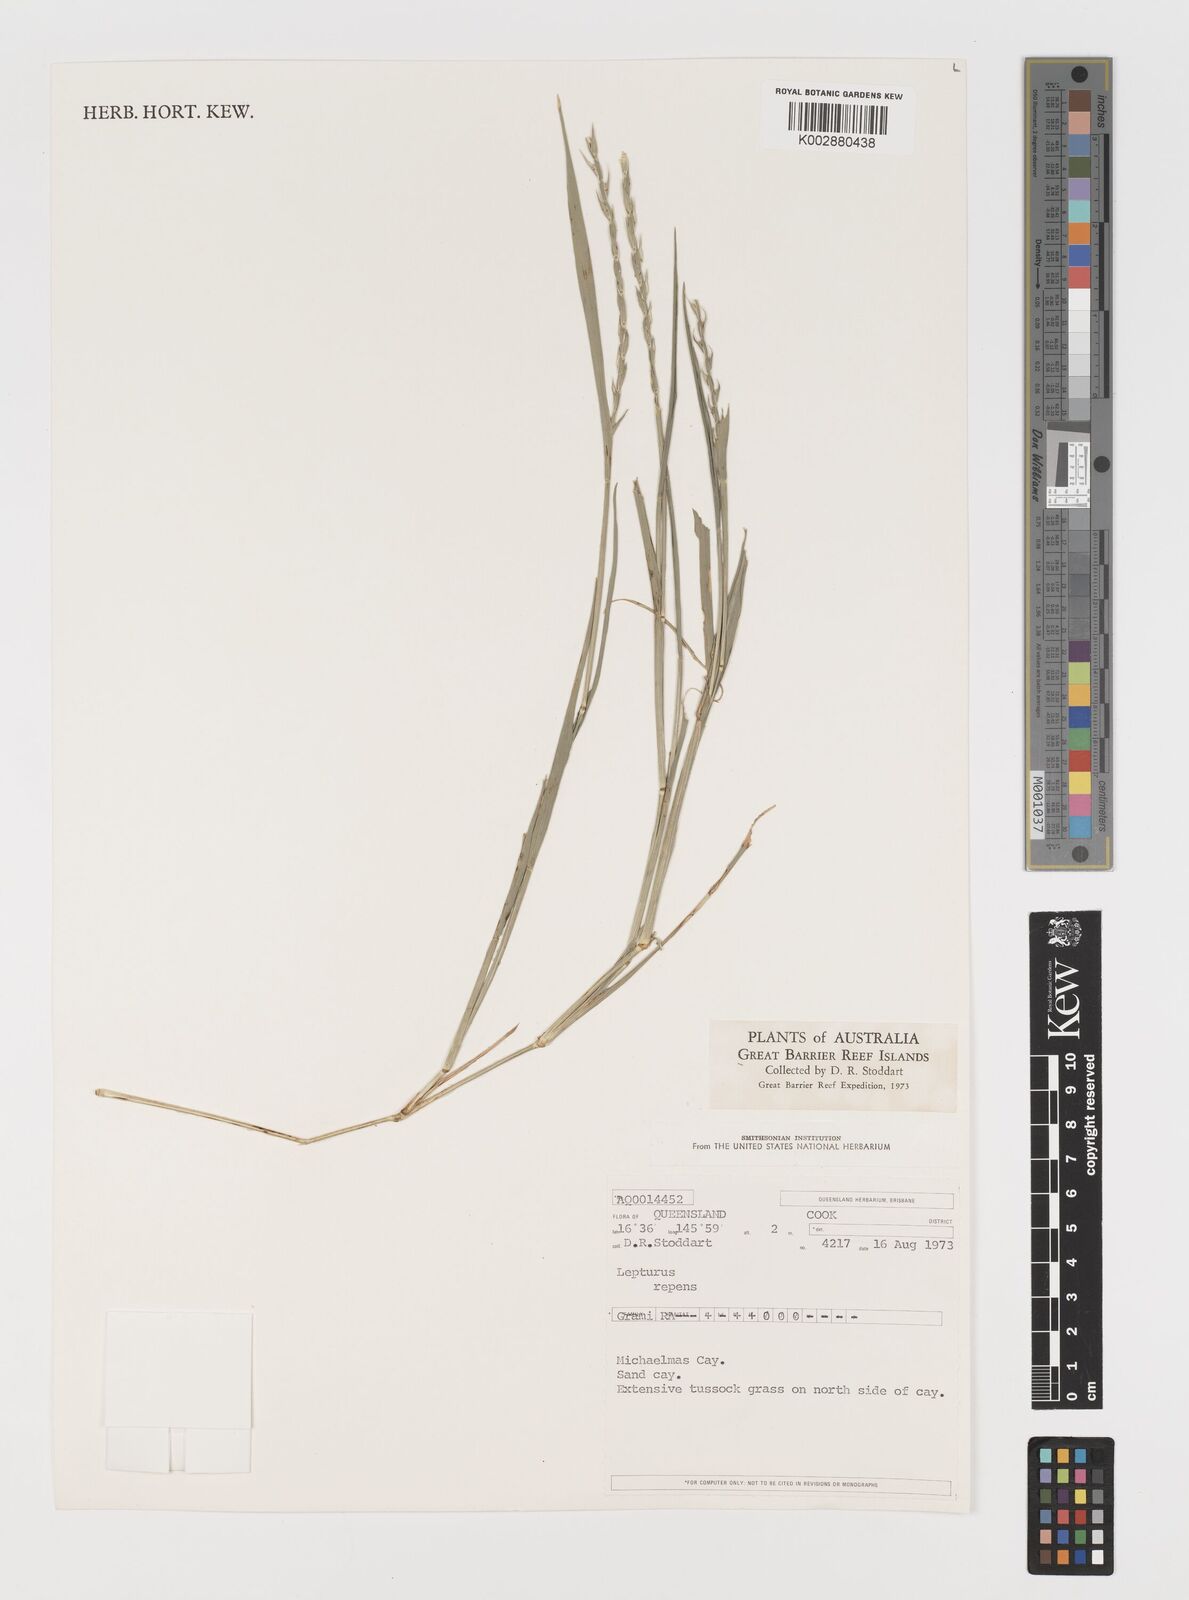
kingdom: Plantae
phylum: Tracheophyta
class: Liliopsida
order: Poales
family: Poaceae
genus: Lepturus
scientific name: Lepturus repens
